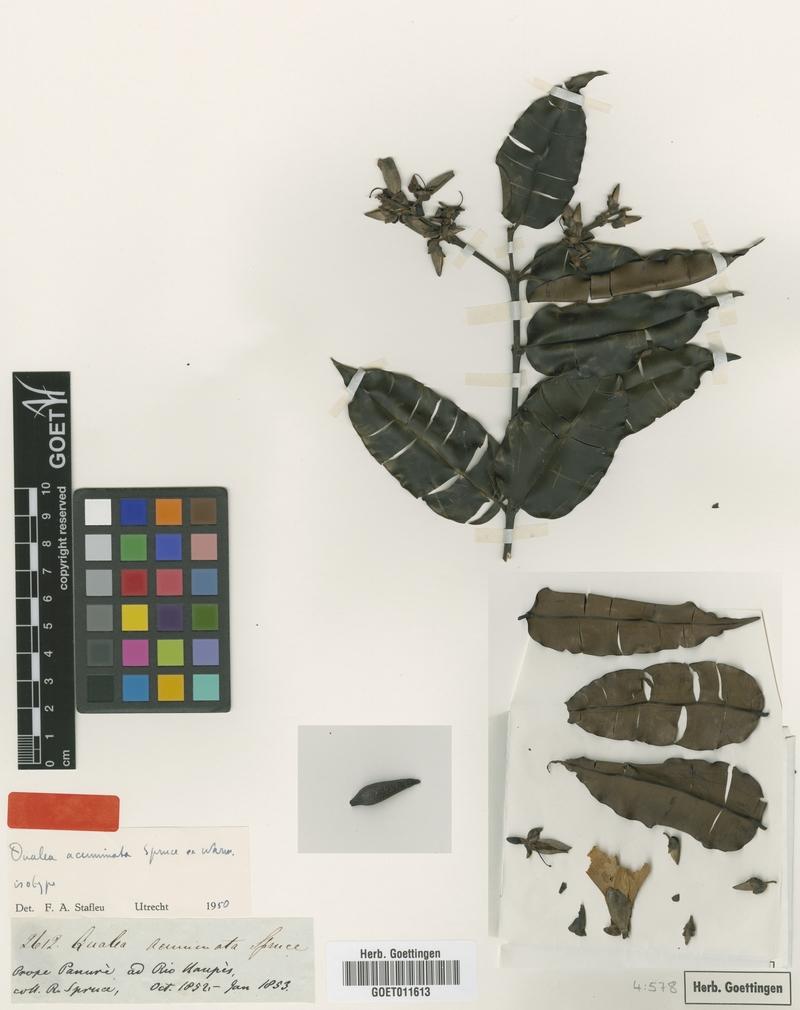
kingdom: Plantae
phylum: Tracheophyta
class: Magnoliopsida
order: Myrtales
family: Vochysiaceae
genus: Qualea
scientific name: Qualea acuminata
